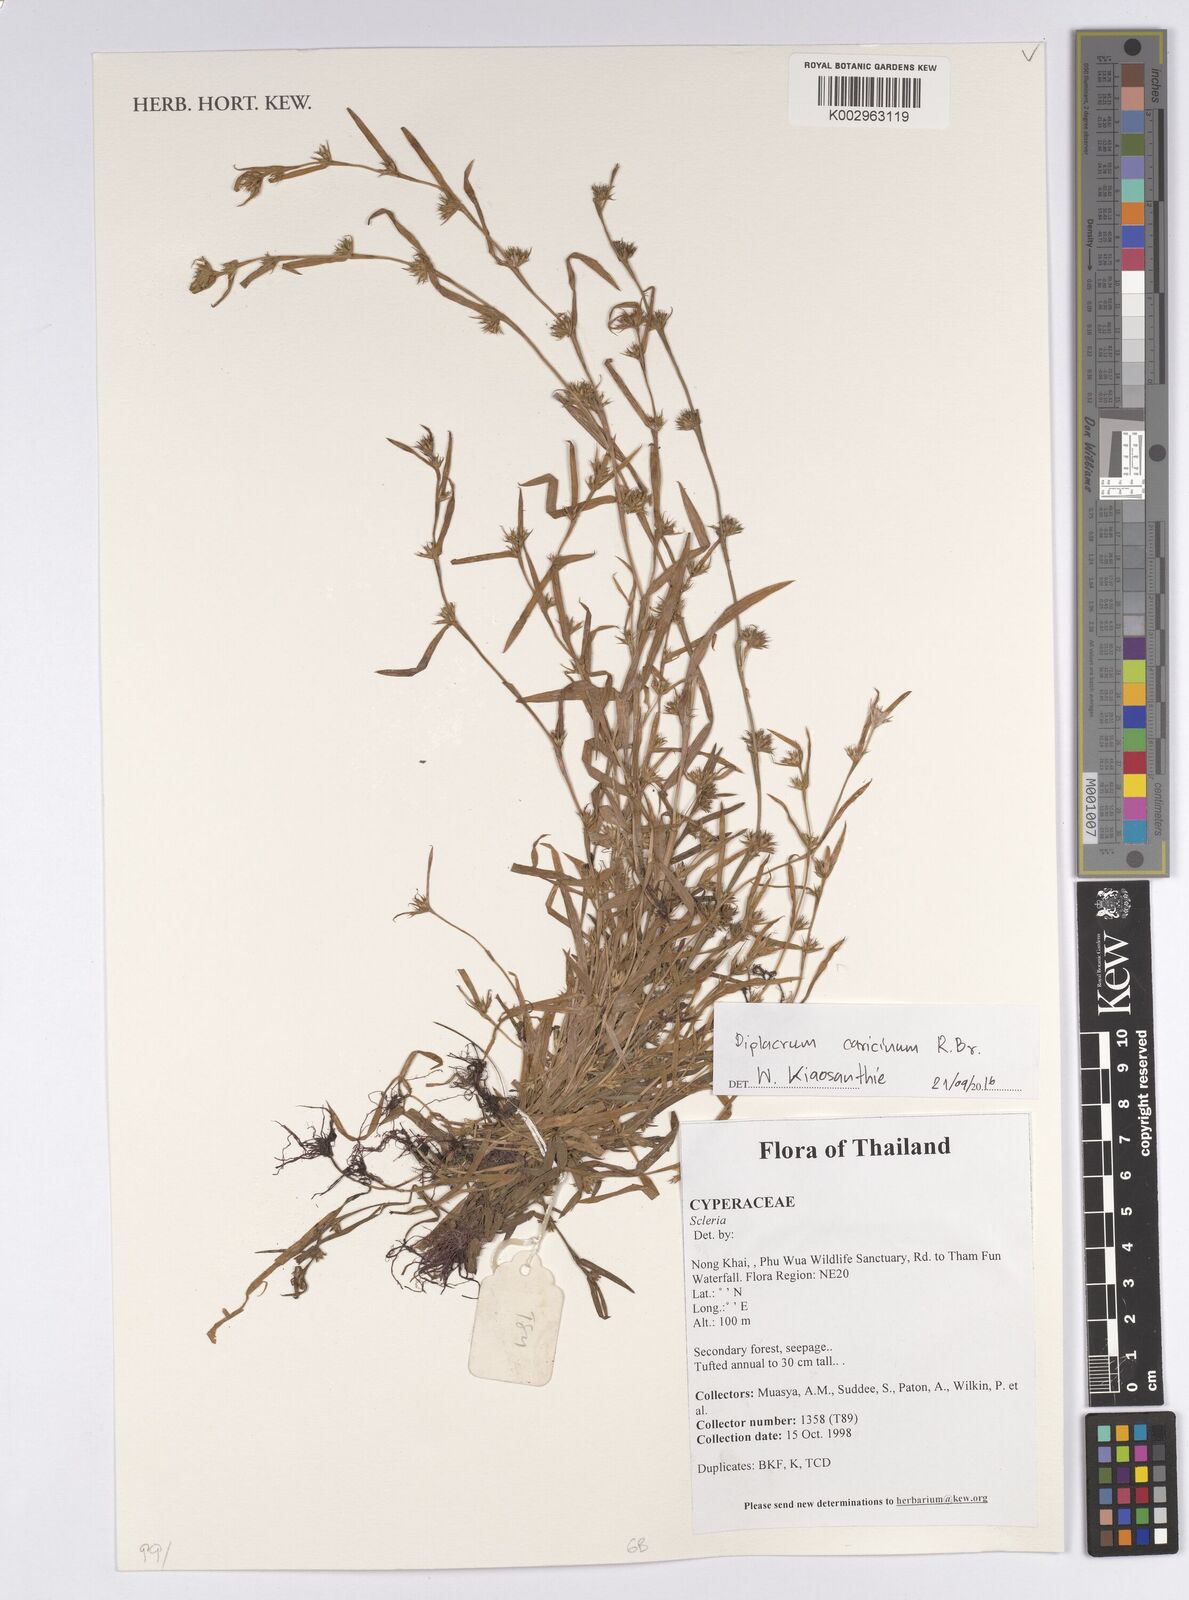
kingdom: Plantae
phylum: Tracheophyta
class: Liliopsida
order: Poales
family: Cyperaceae
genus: Diplacrum
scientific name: Diplacrum caricinum
